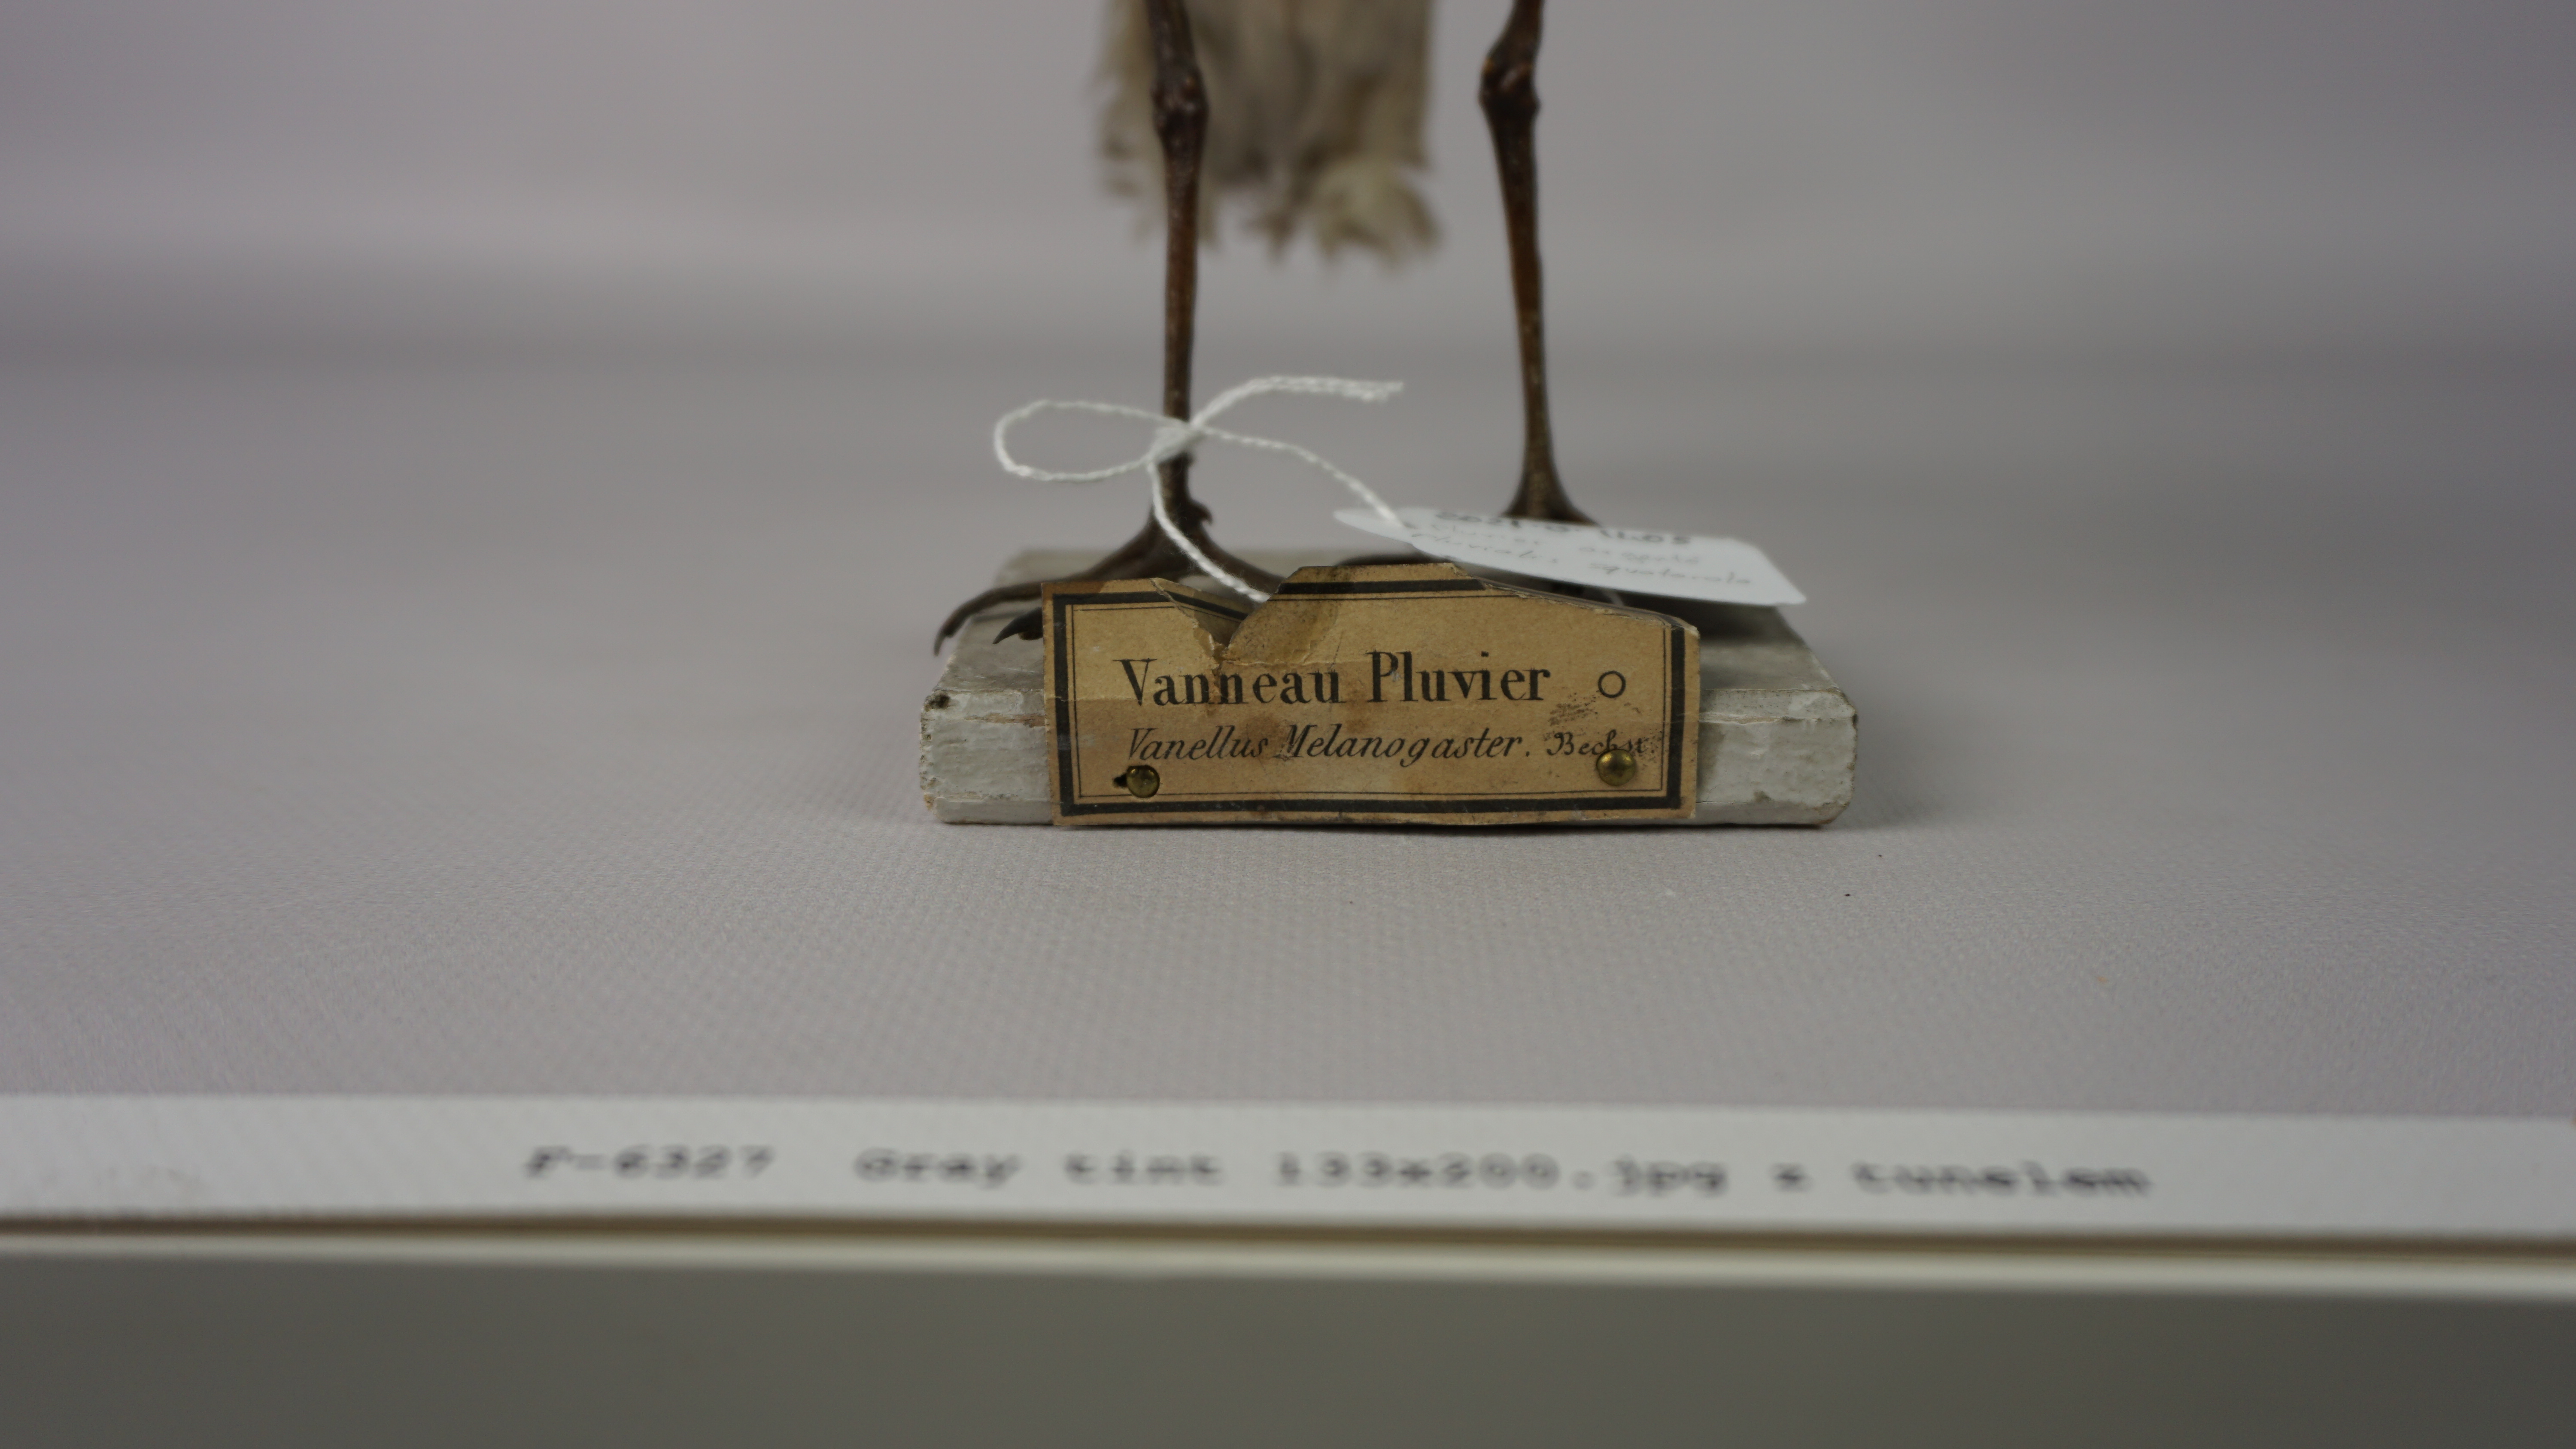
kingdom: Animalia
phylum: Chordata
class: Aves
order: Charadriiformes
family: Charadriidae
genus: Pluvialis
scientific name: Pluvialis squatarola
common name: Grey plover
